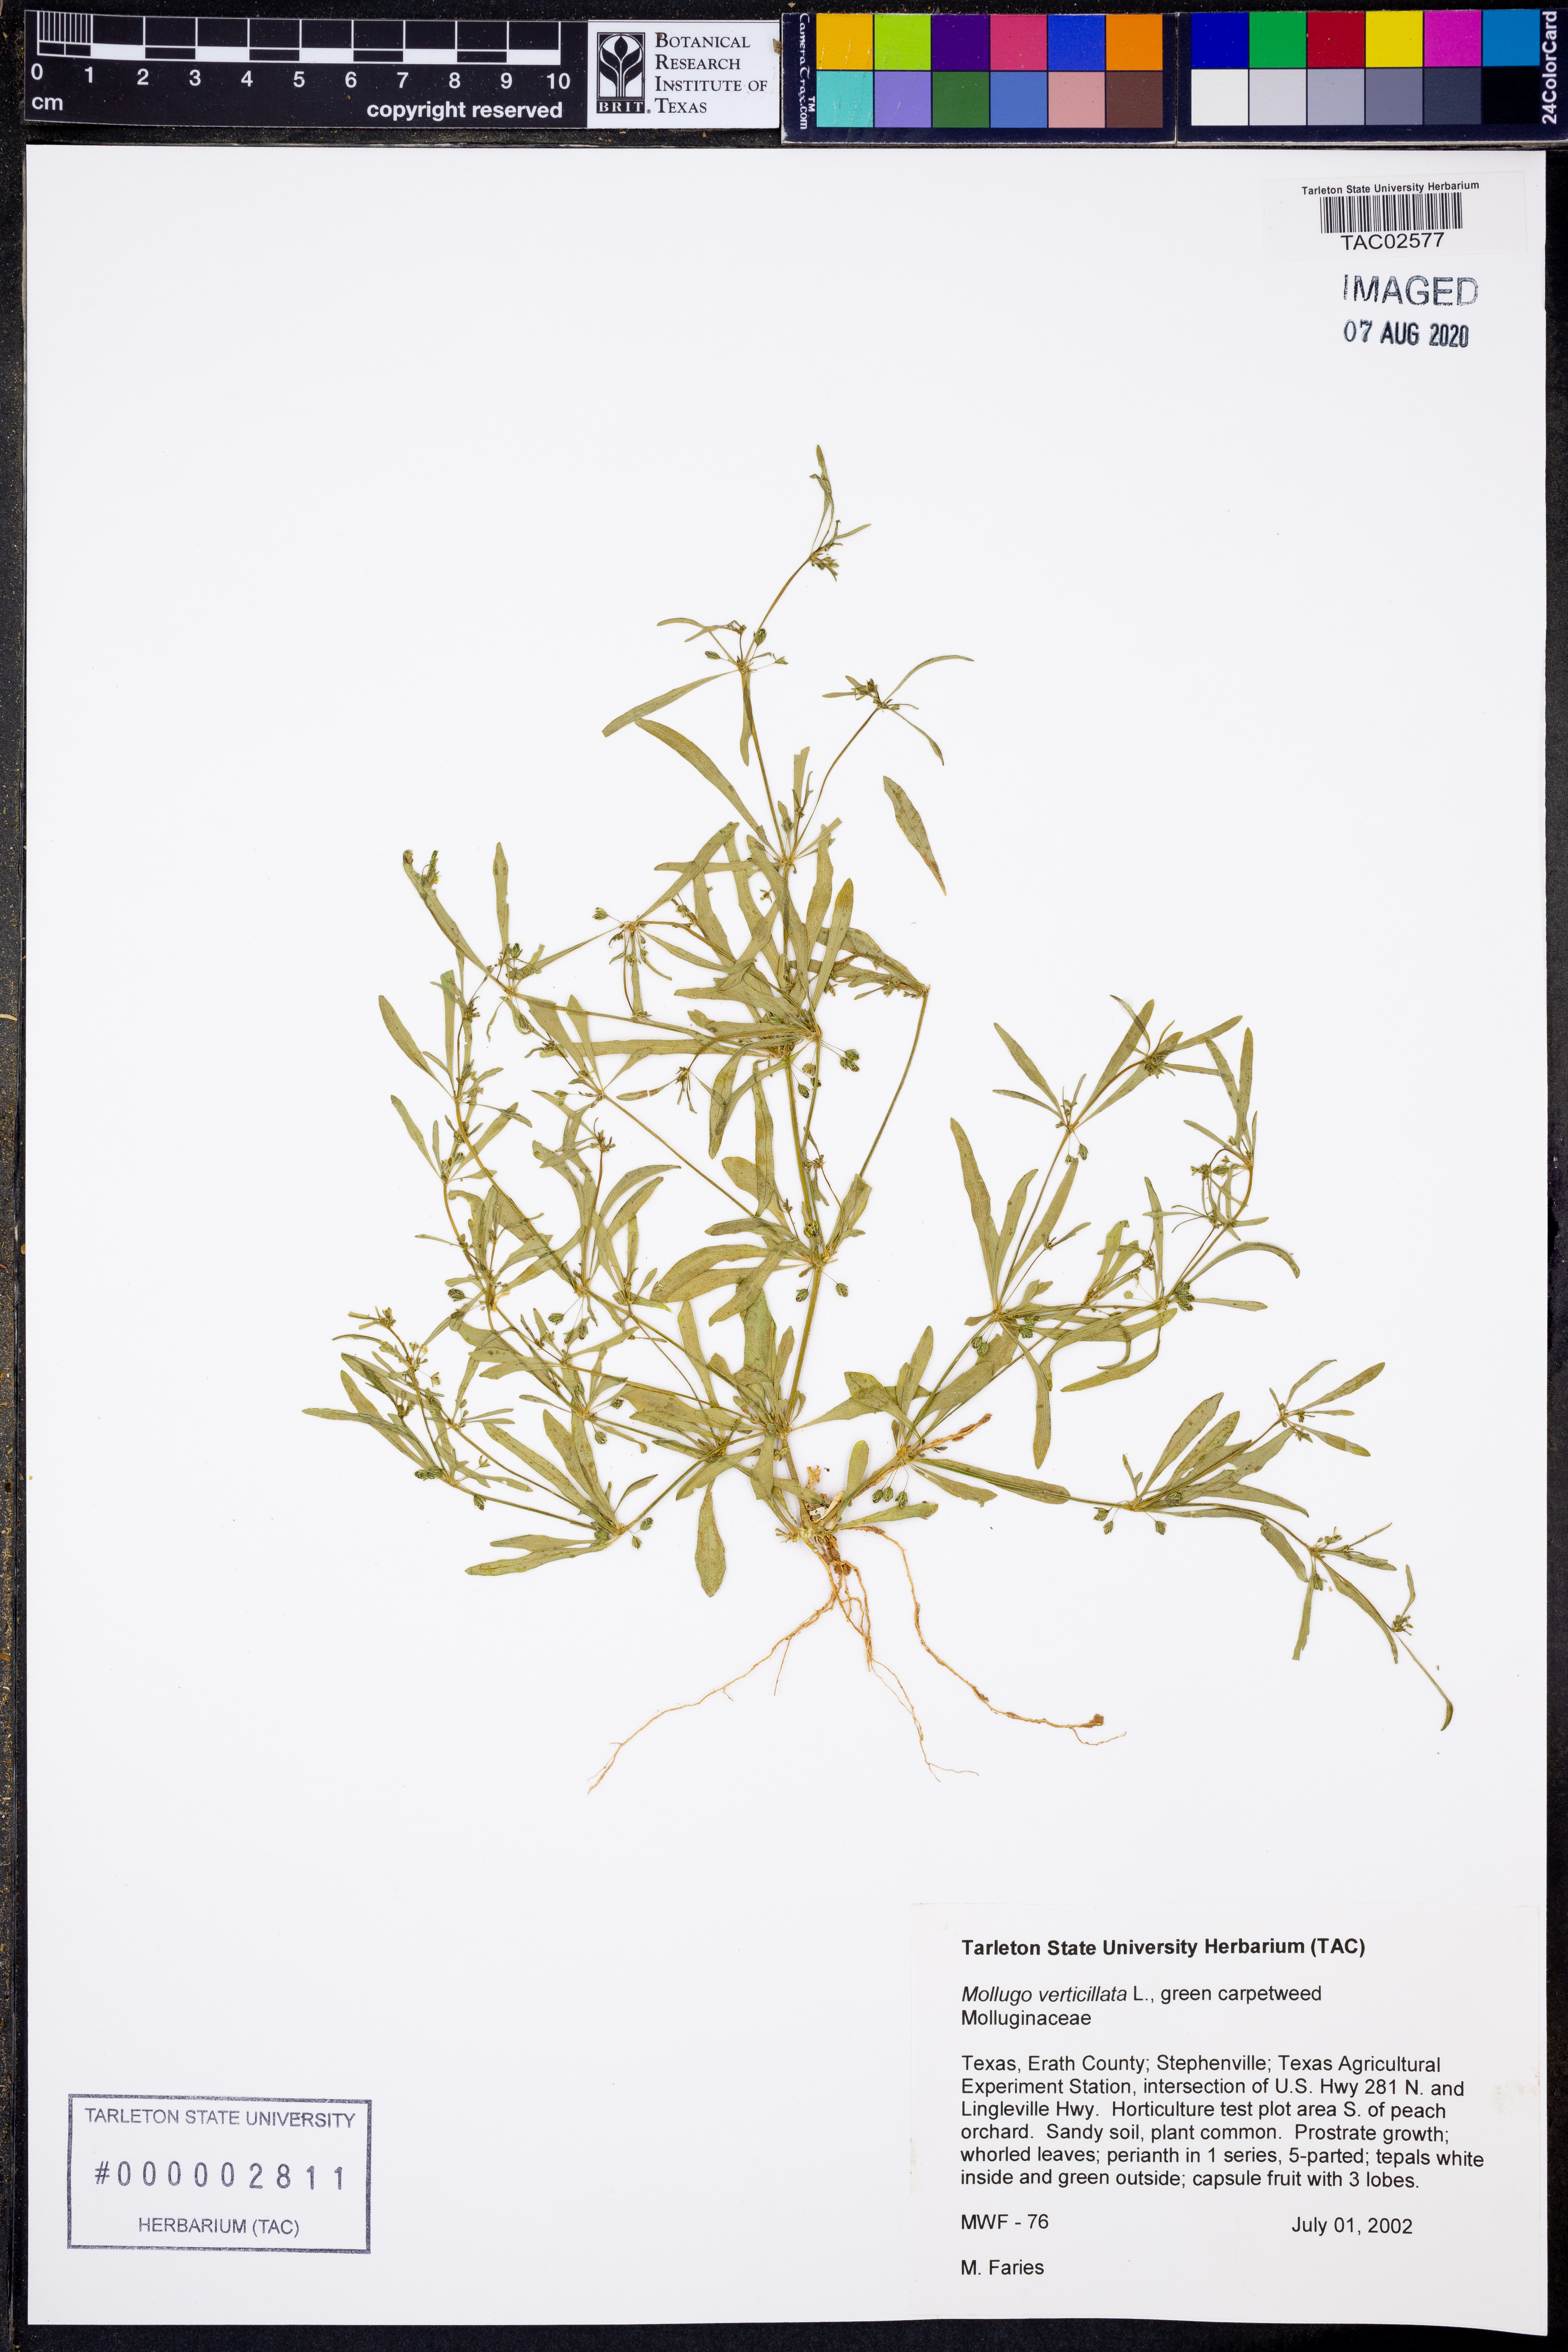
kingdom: Plantae
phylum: Tracheophyta
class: Magnoliopsida
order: Caryophyllales
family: Molluginaceae
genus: Mollugo
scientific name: Mollugo verticillata
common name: Green carpetweed
